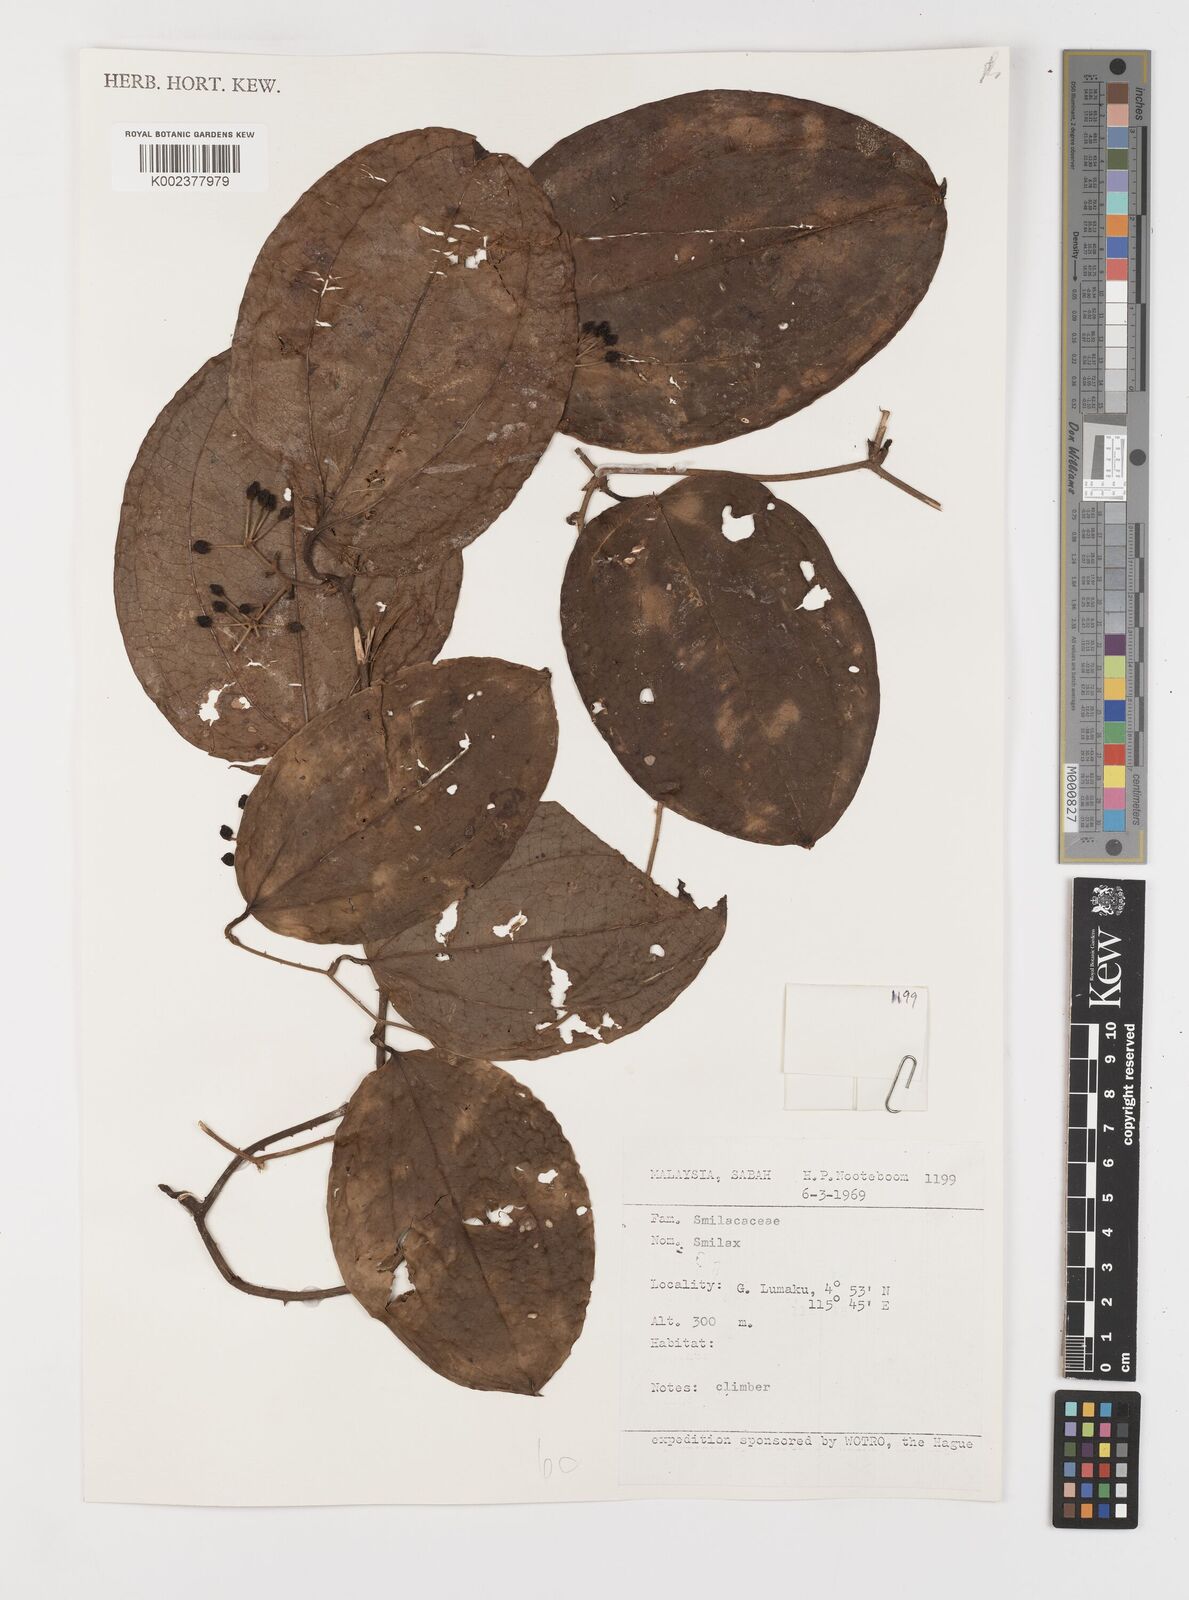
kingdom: Plantae
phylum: Tracheophyta
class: Liliopsida
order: Liliales
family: Smilacaceae
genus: Smilax
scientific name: Smilax
